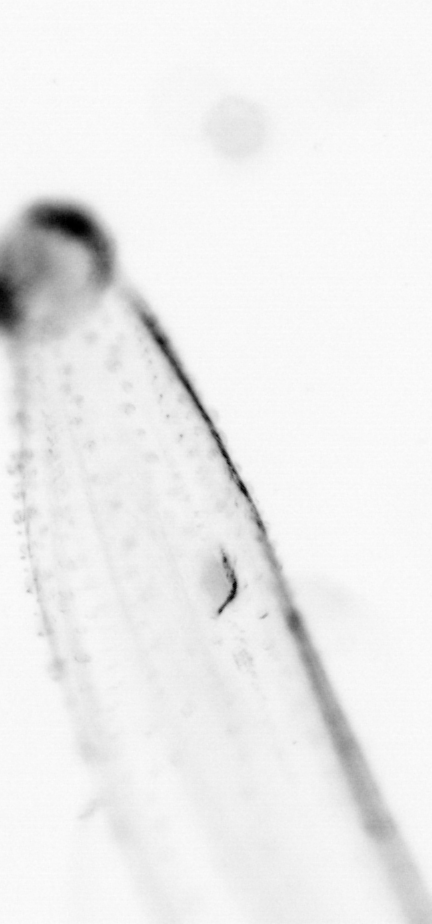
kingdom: Animalia
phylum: Chaetognatha
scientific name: Chaetognatha
